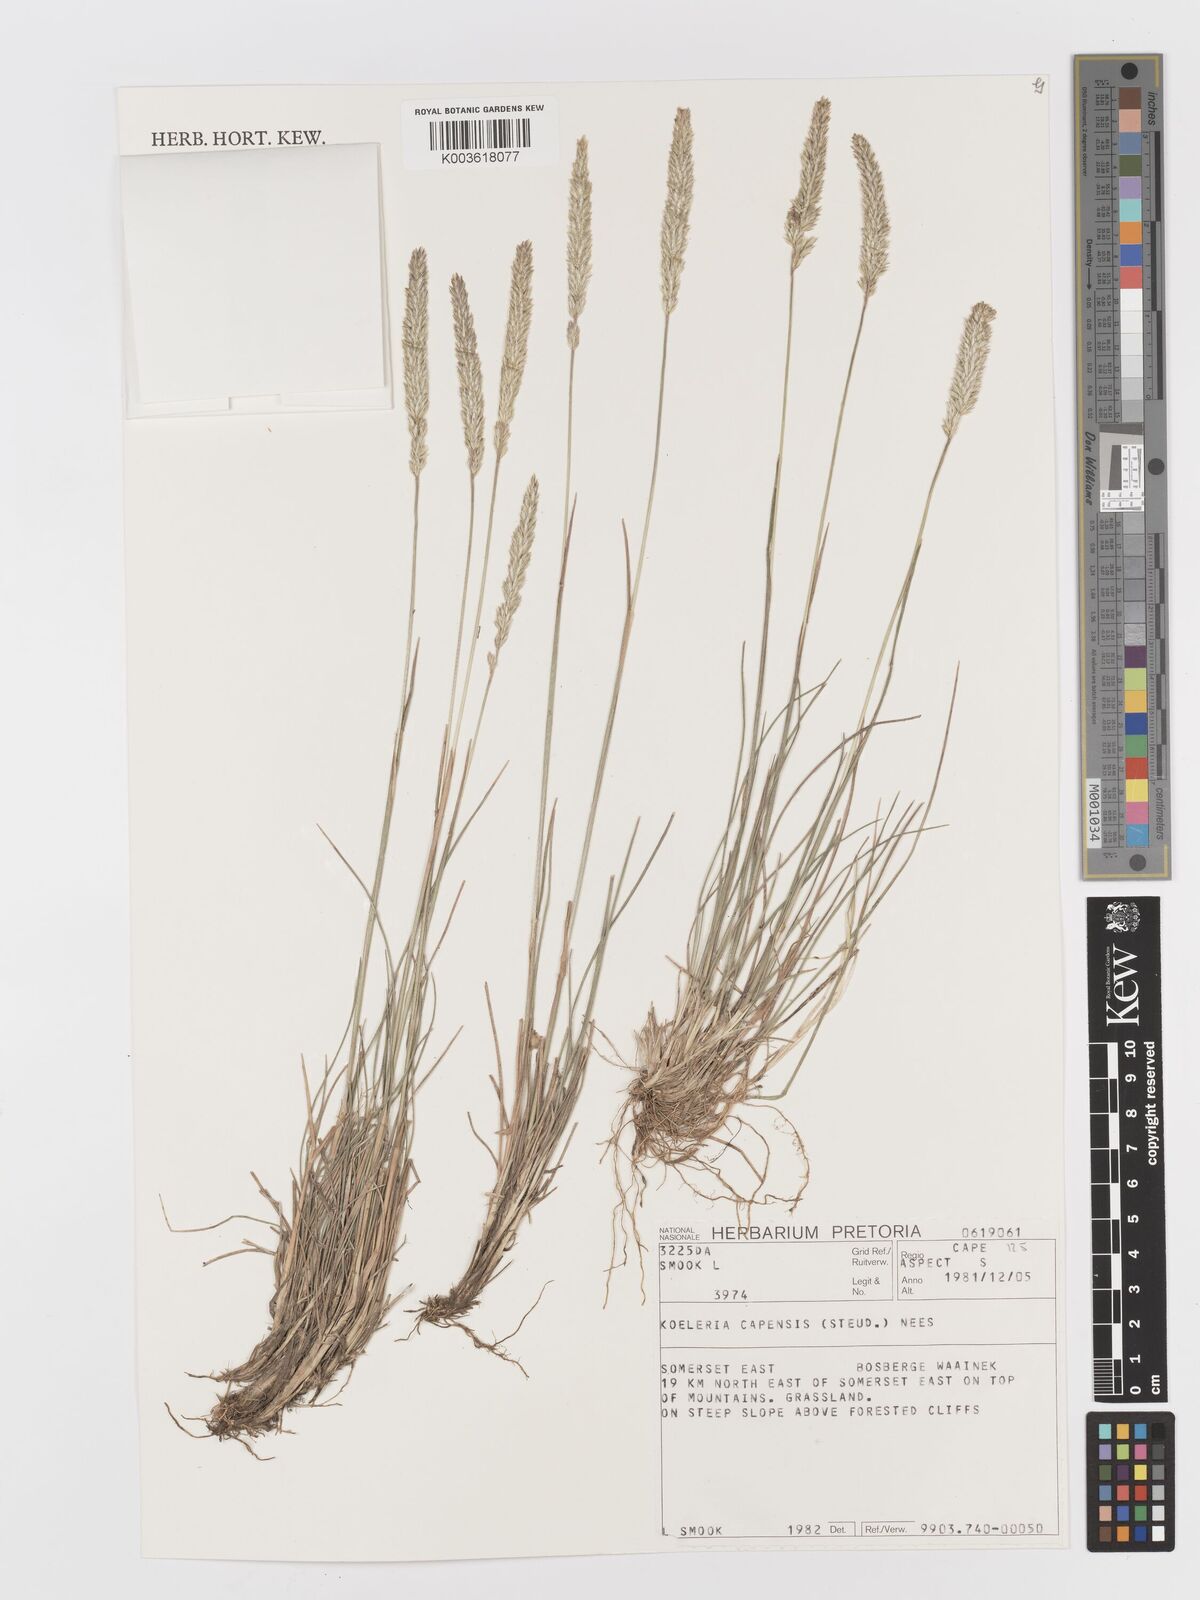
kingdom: Plantae
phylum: Tracheophyta
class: Liliopsida
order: Poales
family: Poaceae
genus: Koeleria
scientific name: Koeleria capensis
